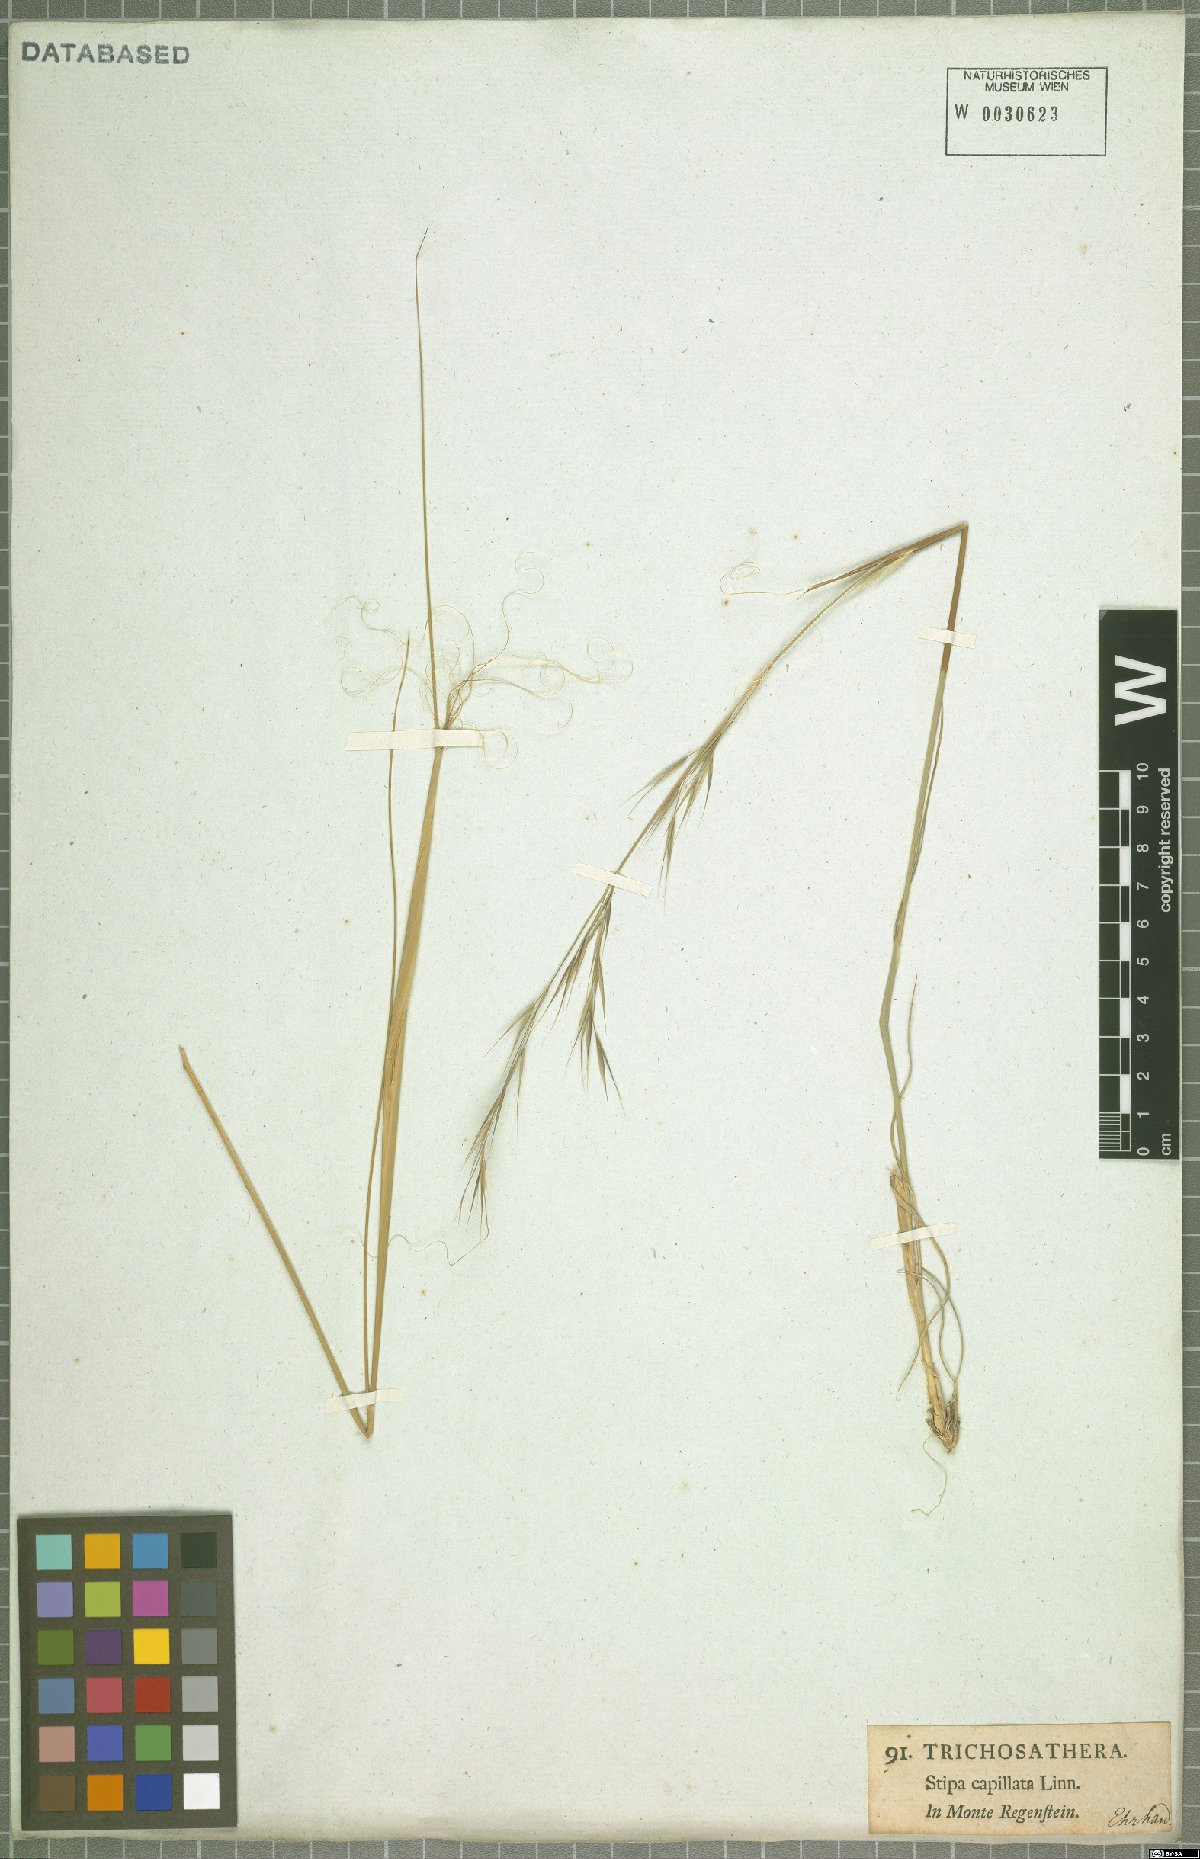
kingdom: Plantae
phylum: Tracheophyta
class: Liliopsida
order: Poales
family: Poaceae
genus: Stipa
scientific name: Stipa capillata
